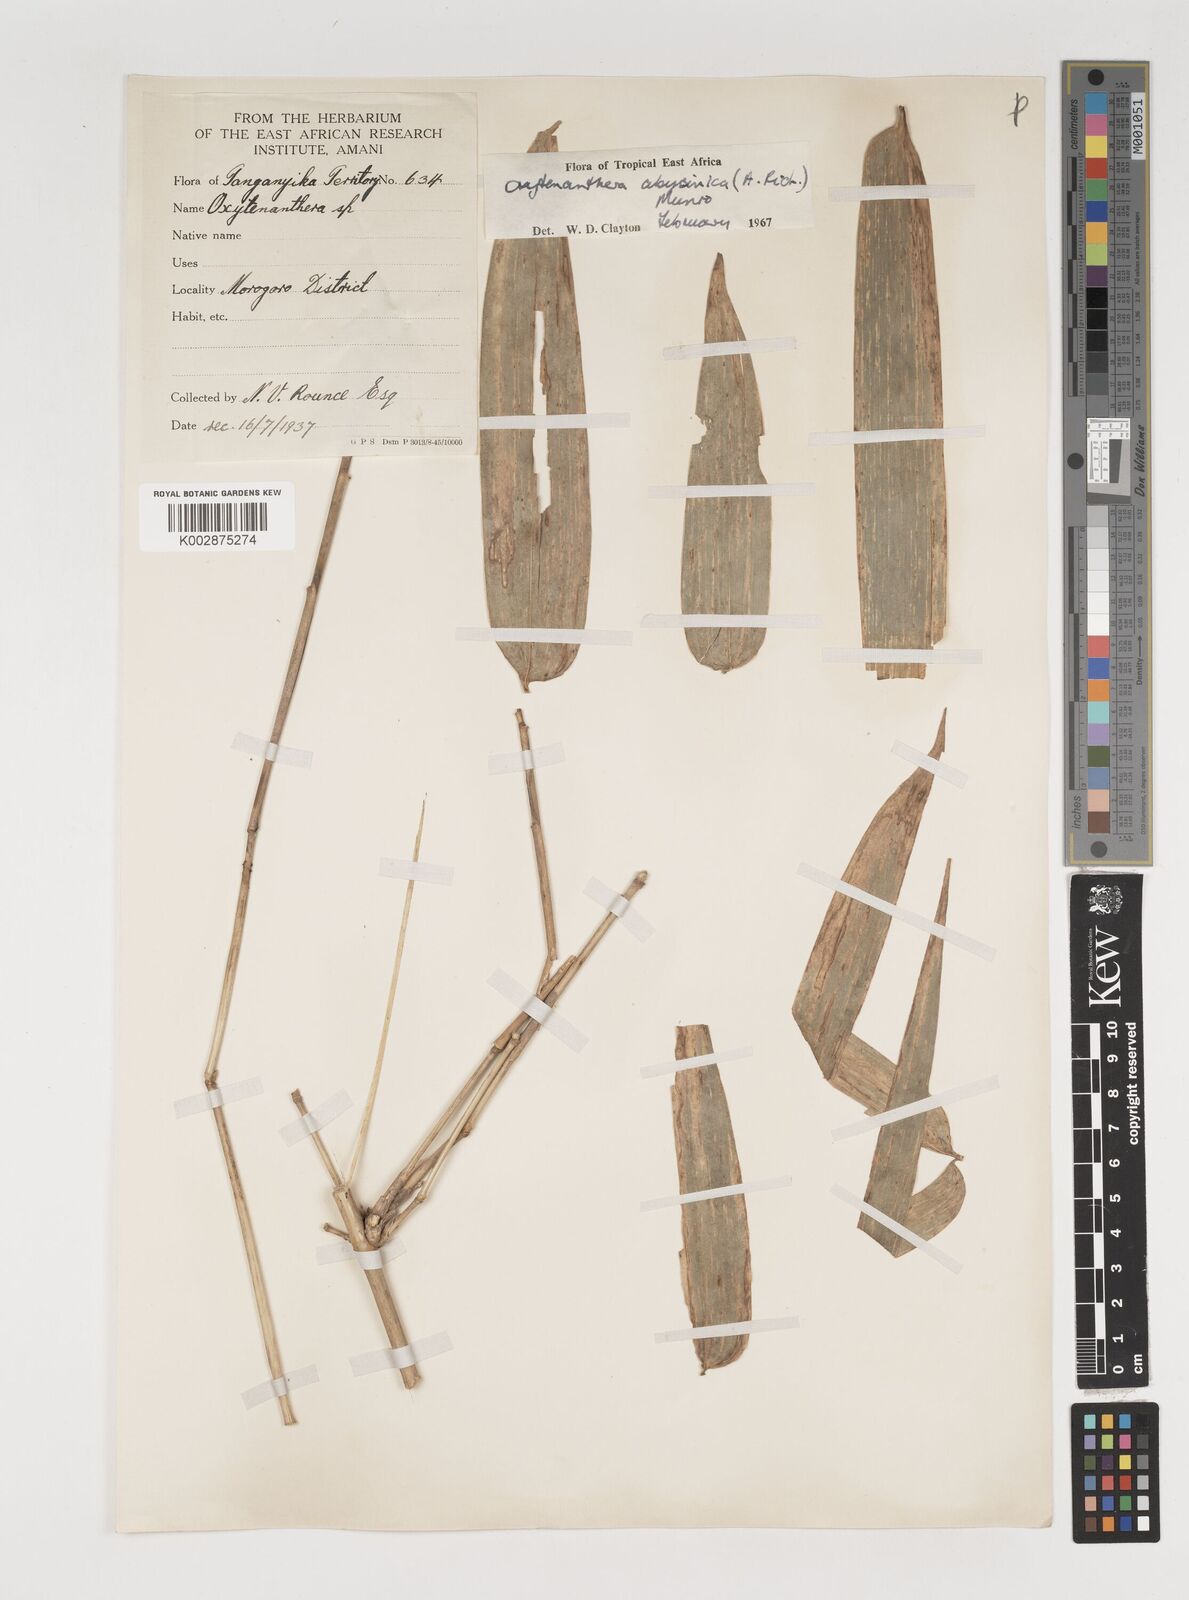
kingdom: Plantae
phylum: Tracheophyta
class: Liliopsida
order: Poales
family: Poaceae
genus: Oxytenanthera
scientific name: Oxytenanthera abyssinica
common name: Wine bamboo
